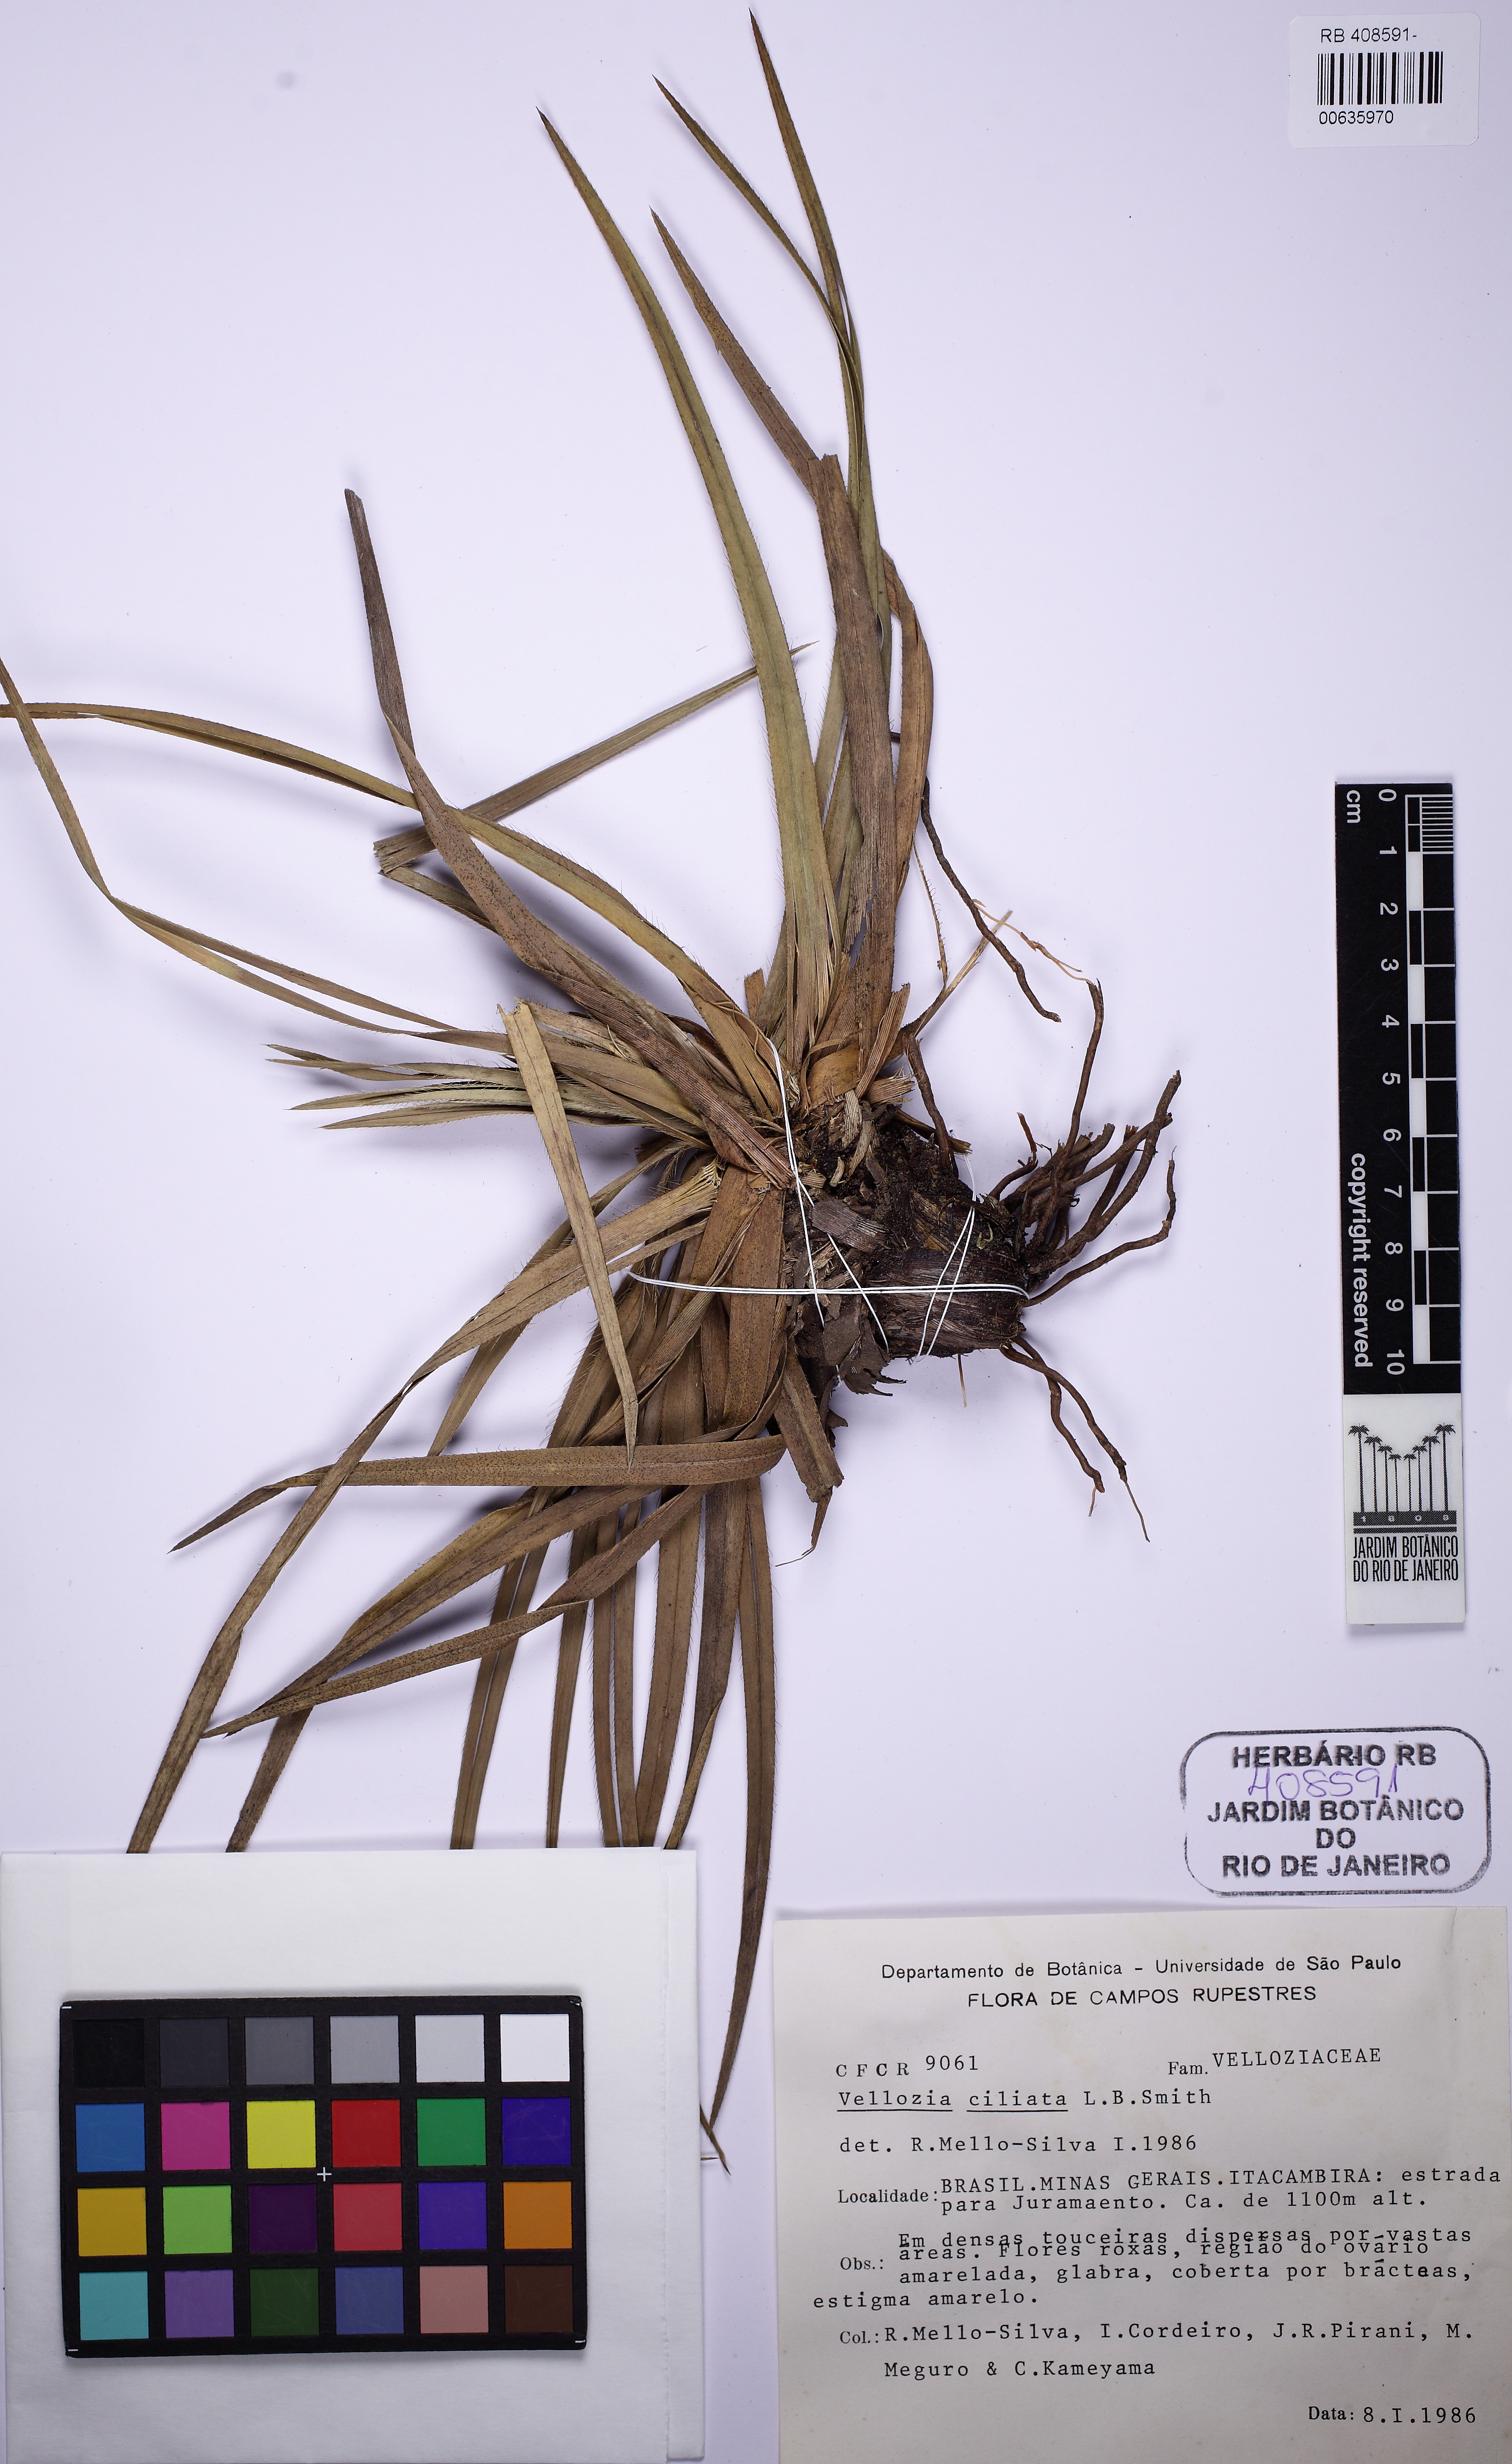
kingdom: Plantae
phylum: Tracheophyta
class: Liliopsida
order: Pandanales
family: Velloziaceae
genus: Vellozia
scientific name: Vellozia ciliata
